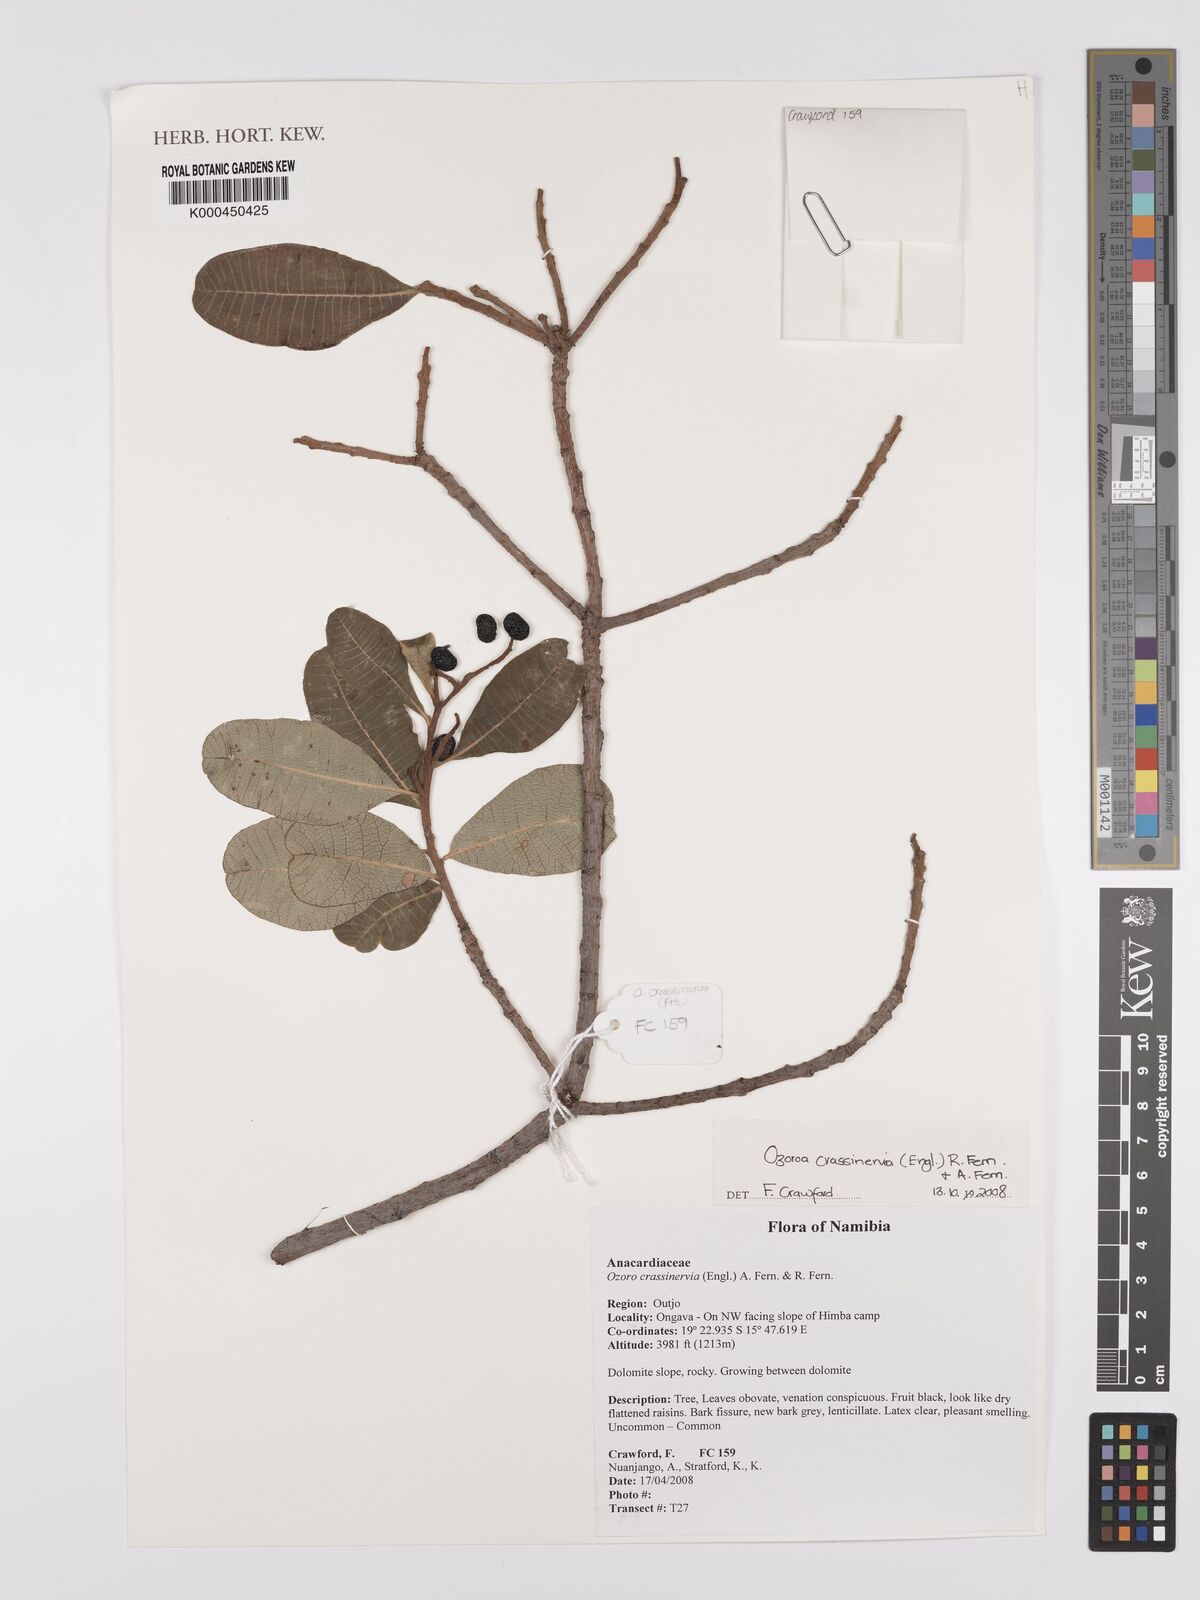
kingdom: Plantae
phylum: Tracheophyta
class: Magnoliopsida
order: Sapindales
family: Anacardiaceae
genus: Ozoroa
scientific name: Ozoroa crassinervia
